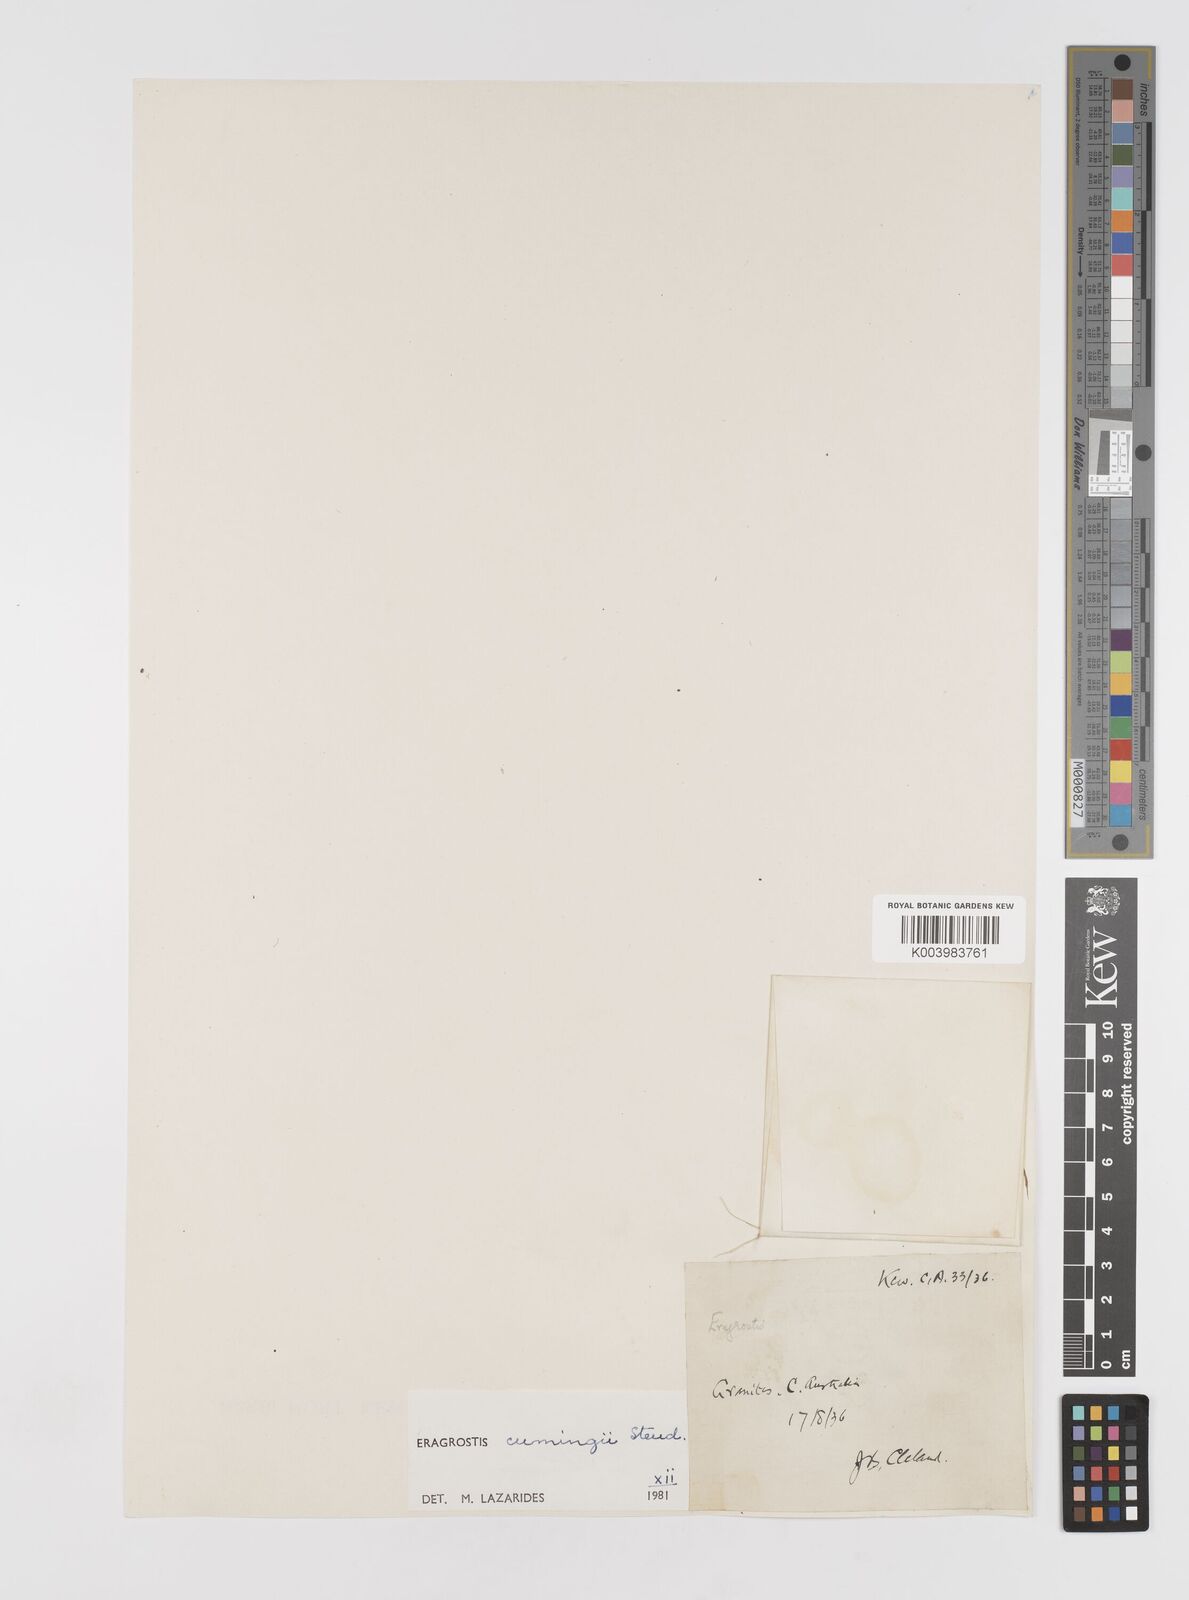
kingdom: Plantae
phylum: Tracheophyta
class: Liliopsida
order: Poales
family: Poaceae
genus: Eragrostis
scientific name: Eragrostis cumingii
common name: Cuming's lovegrass
